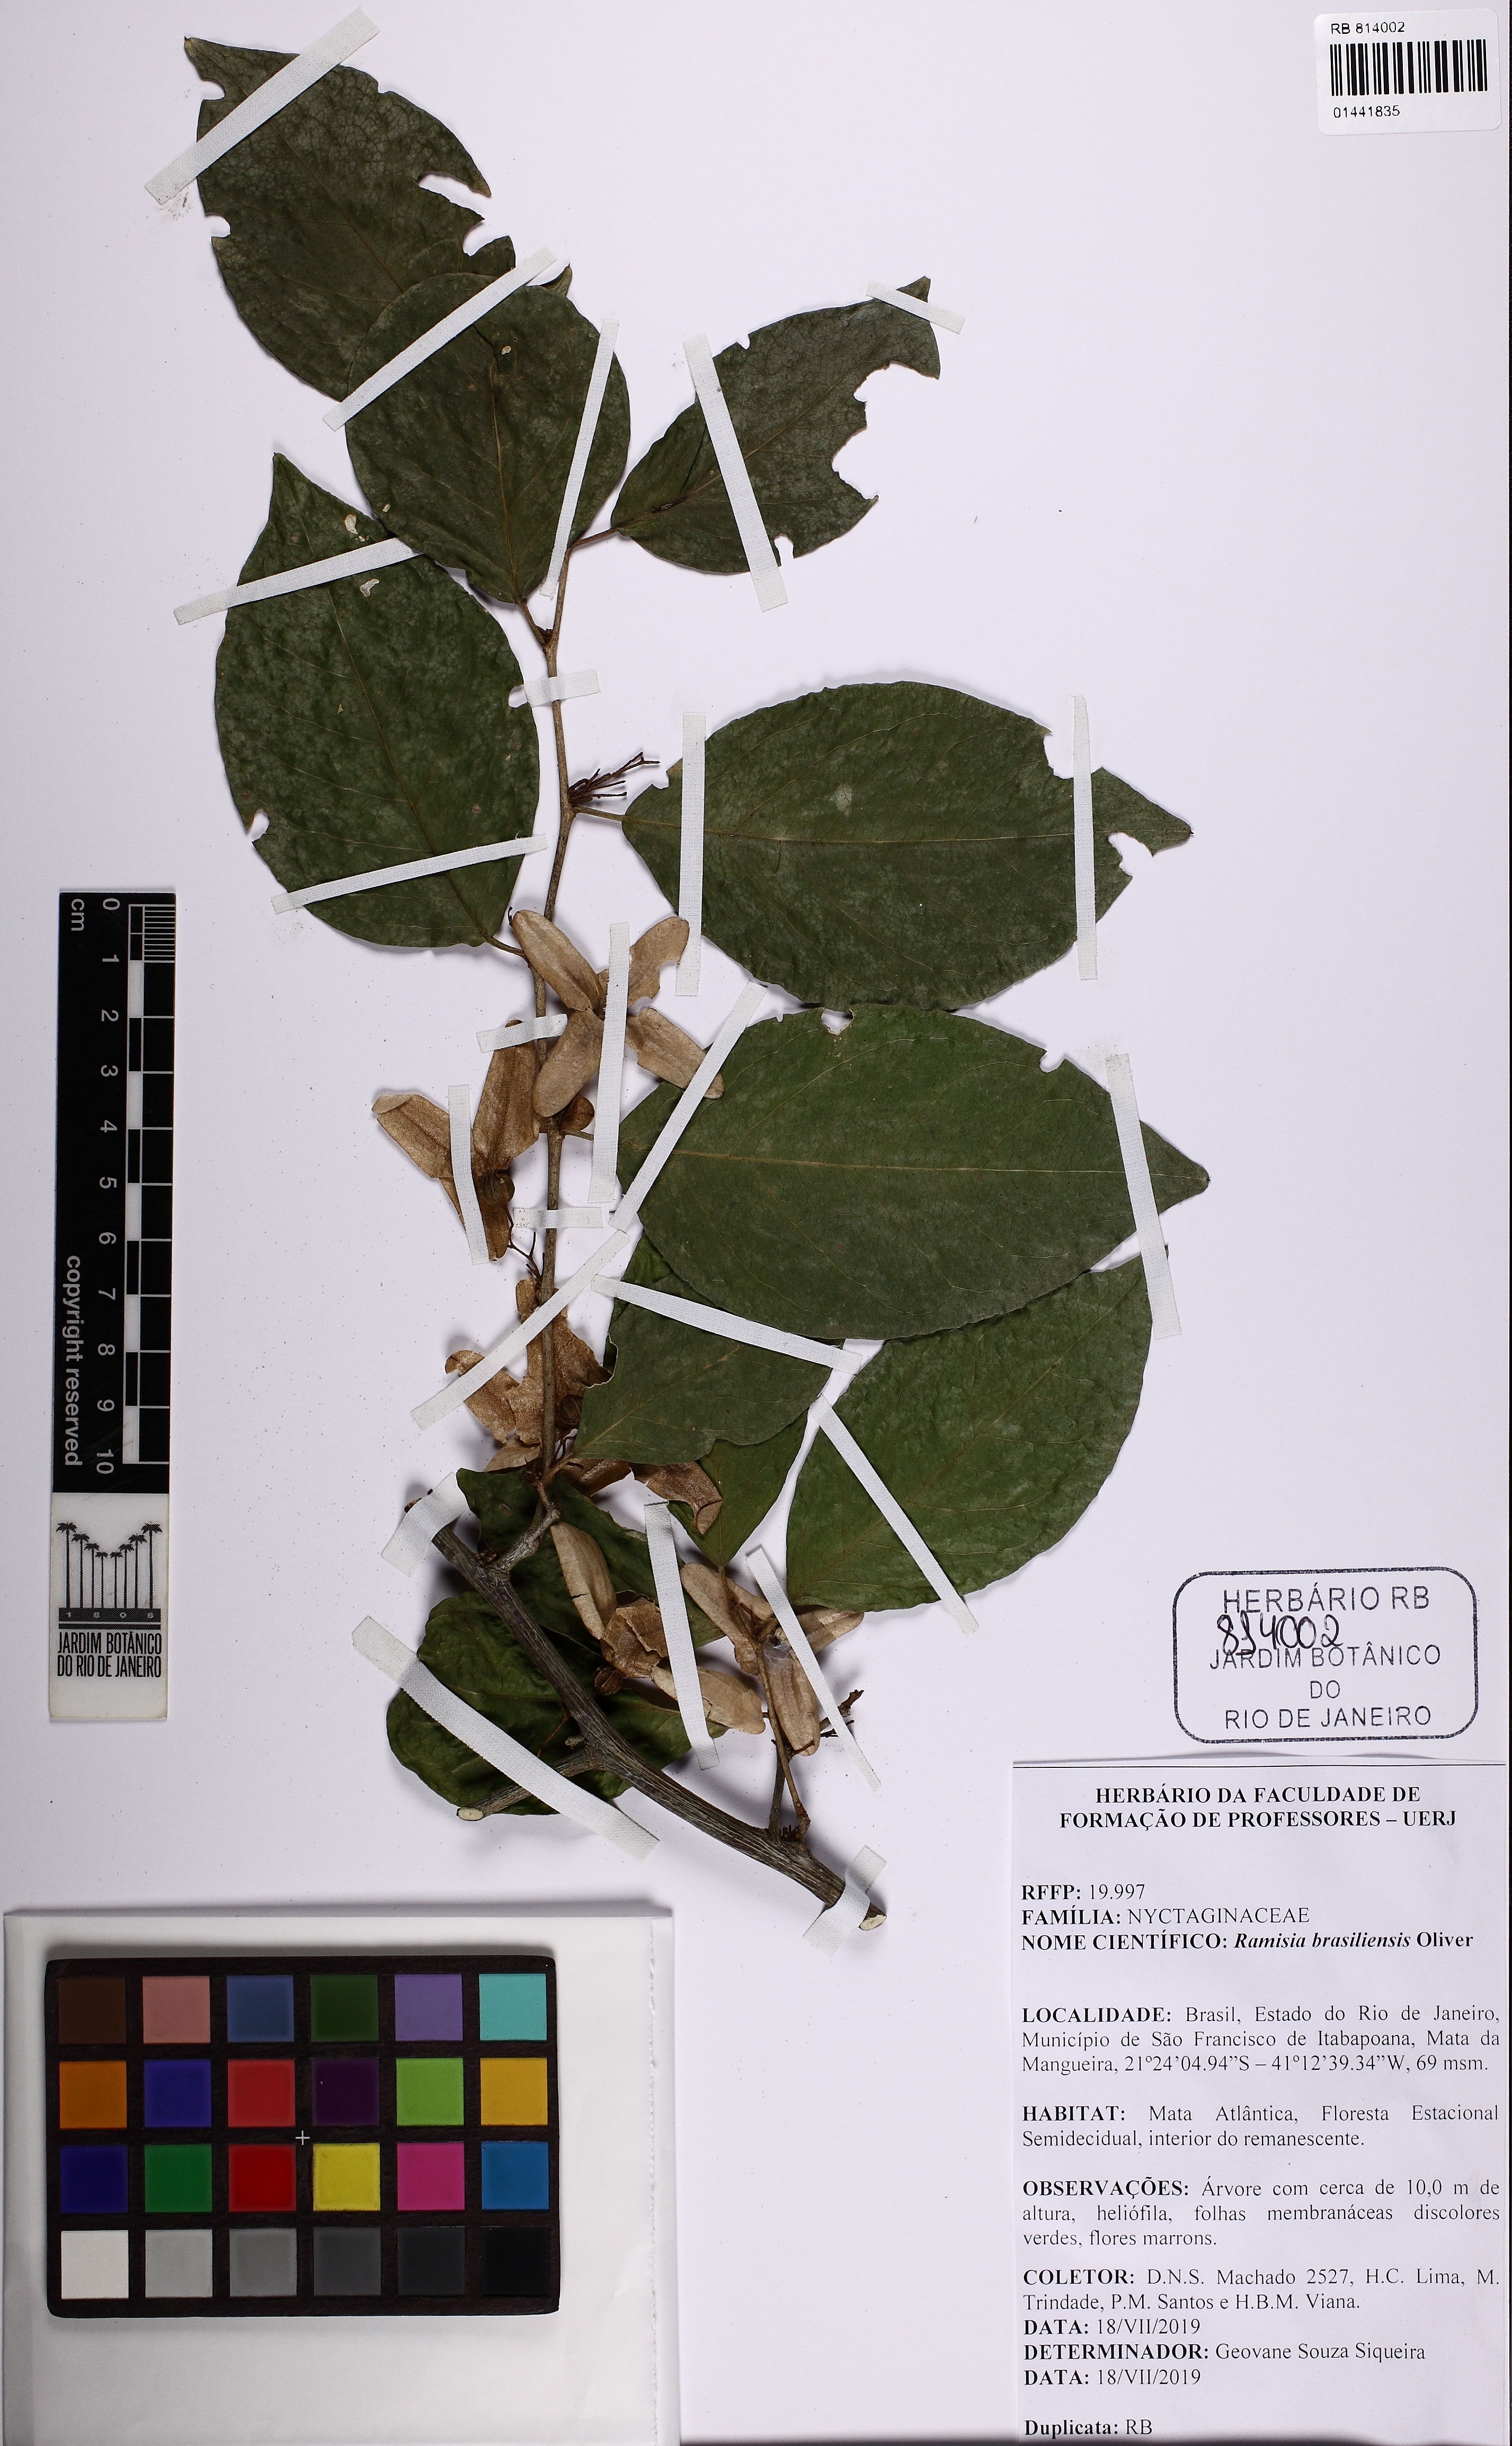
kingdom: Plantae
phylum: Tracheophyta
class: Magnoliopsida
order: Caryophyllales
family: Nyctaginaceae
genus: Ramisia
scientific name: Ramisia brasiliensis
